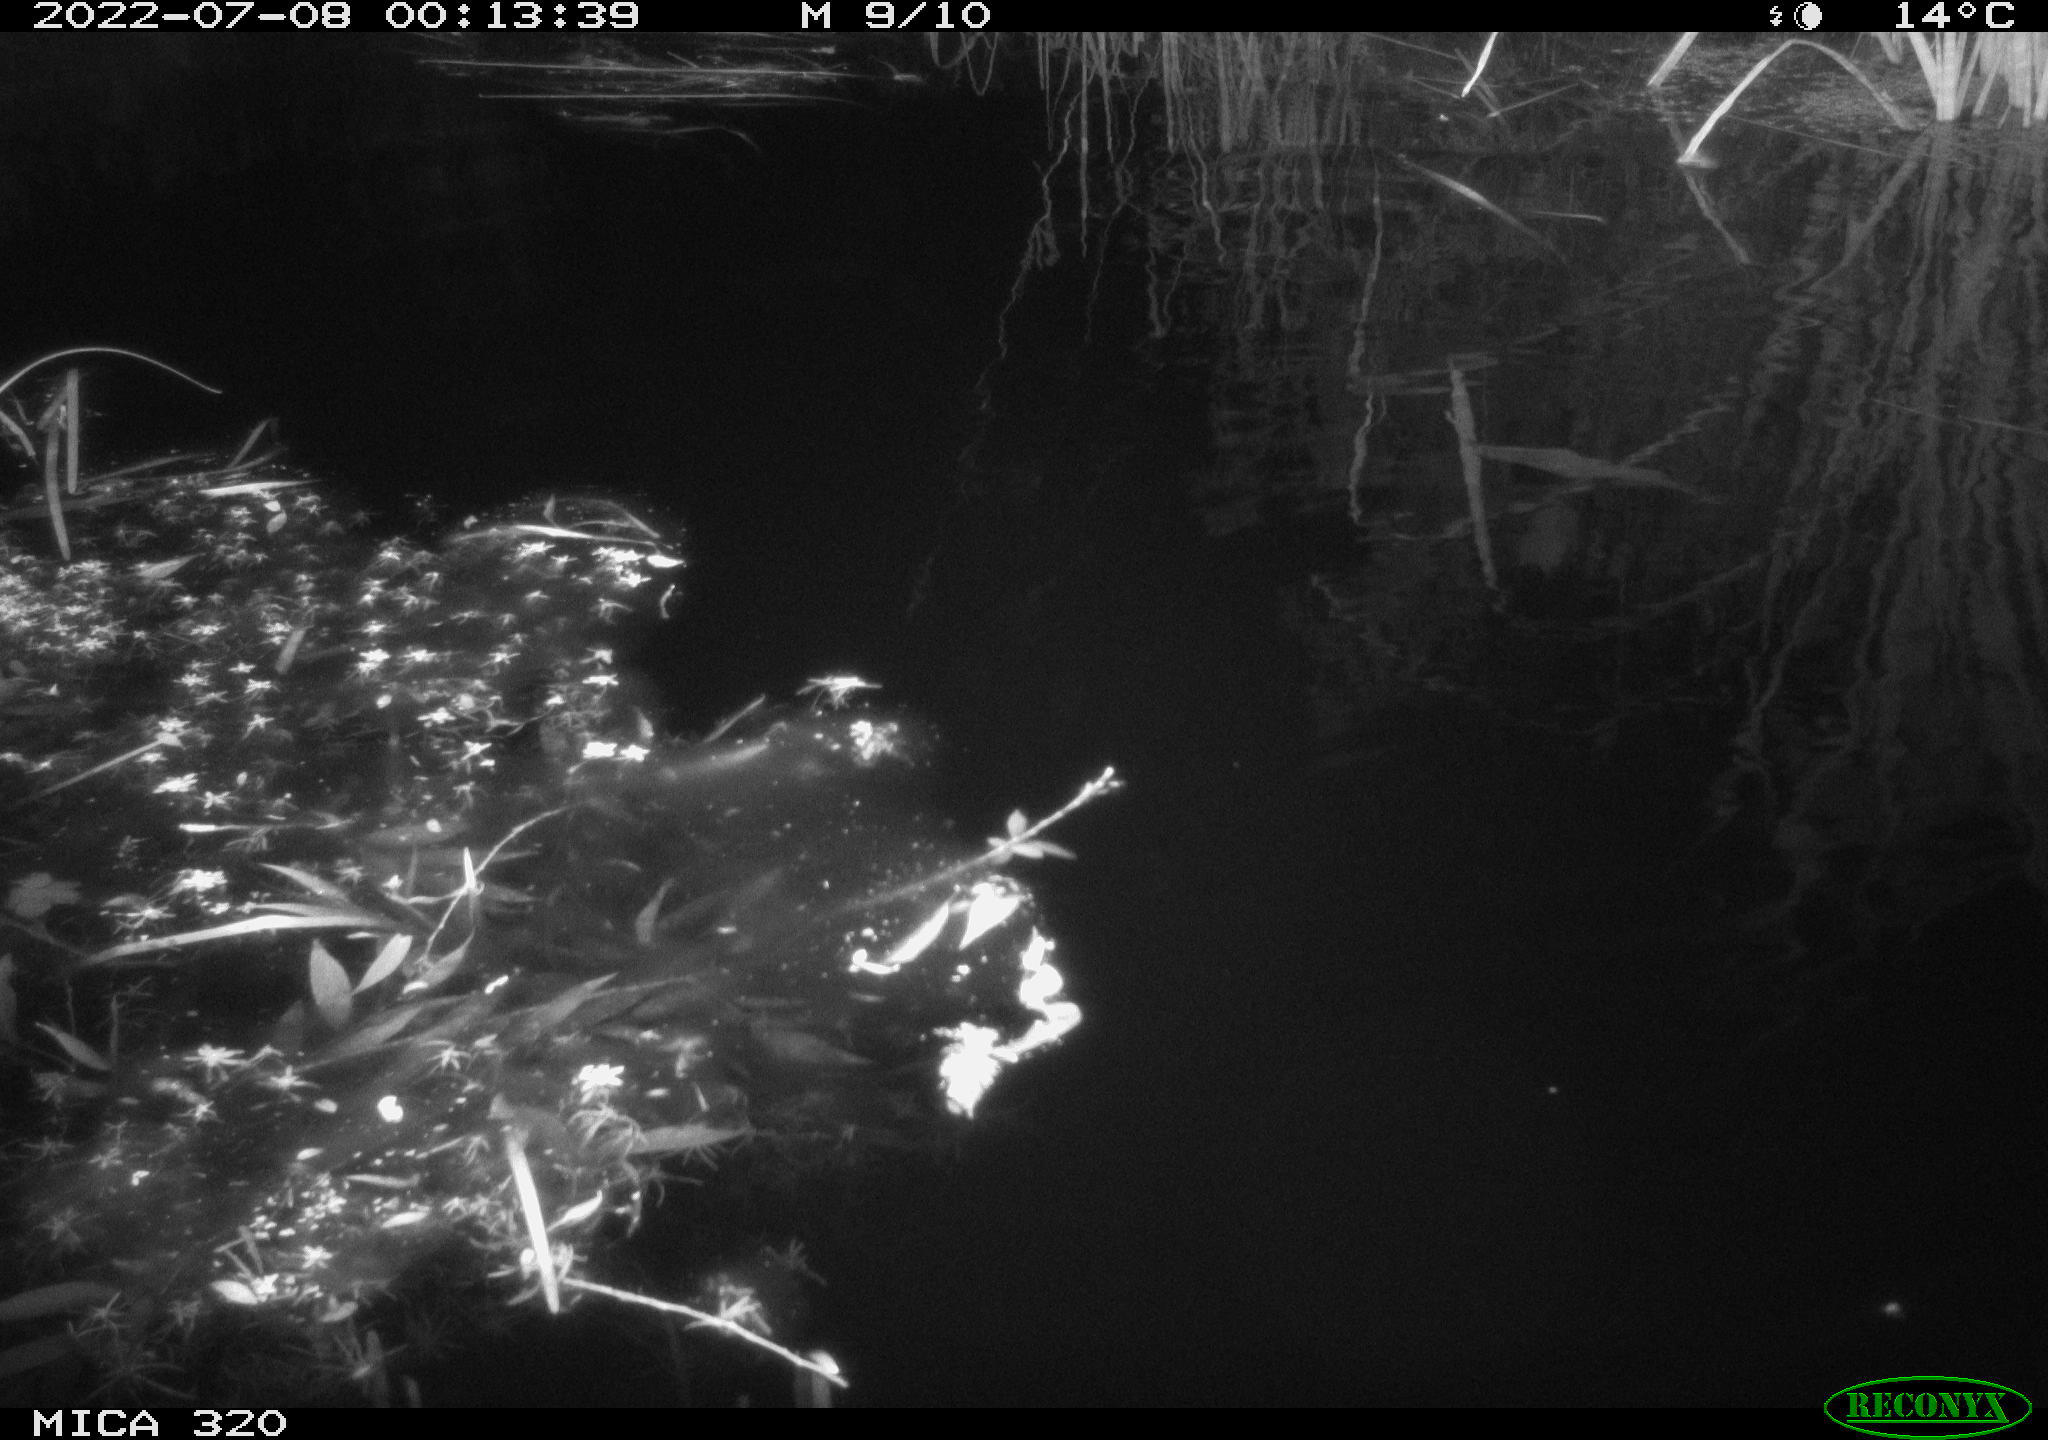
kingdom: Animalia
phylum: Chordata
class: Aves
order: Anseriformes
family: Anatidae
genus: Anas
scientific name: Anas platyrhynchos
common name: Mallard
